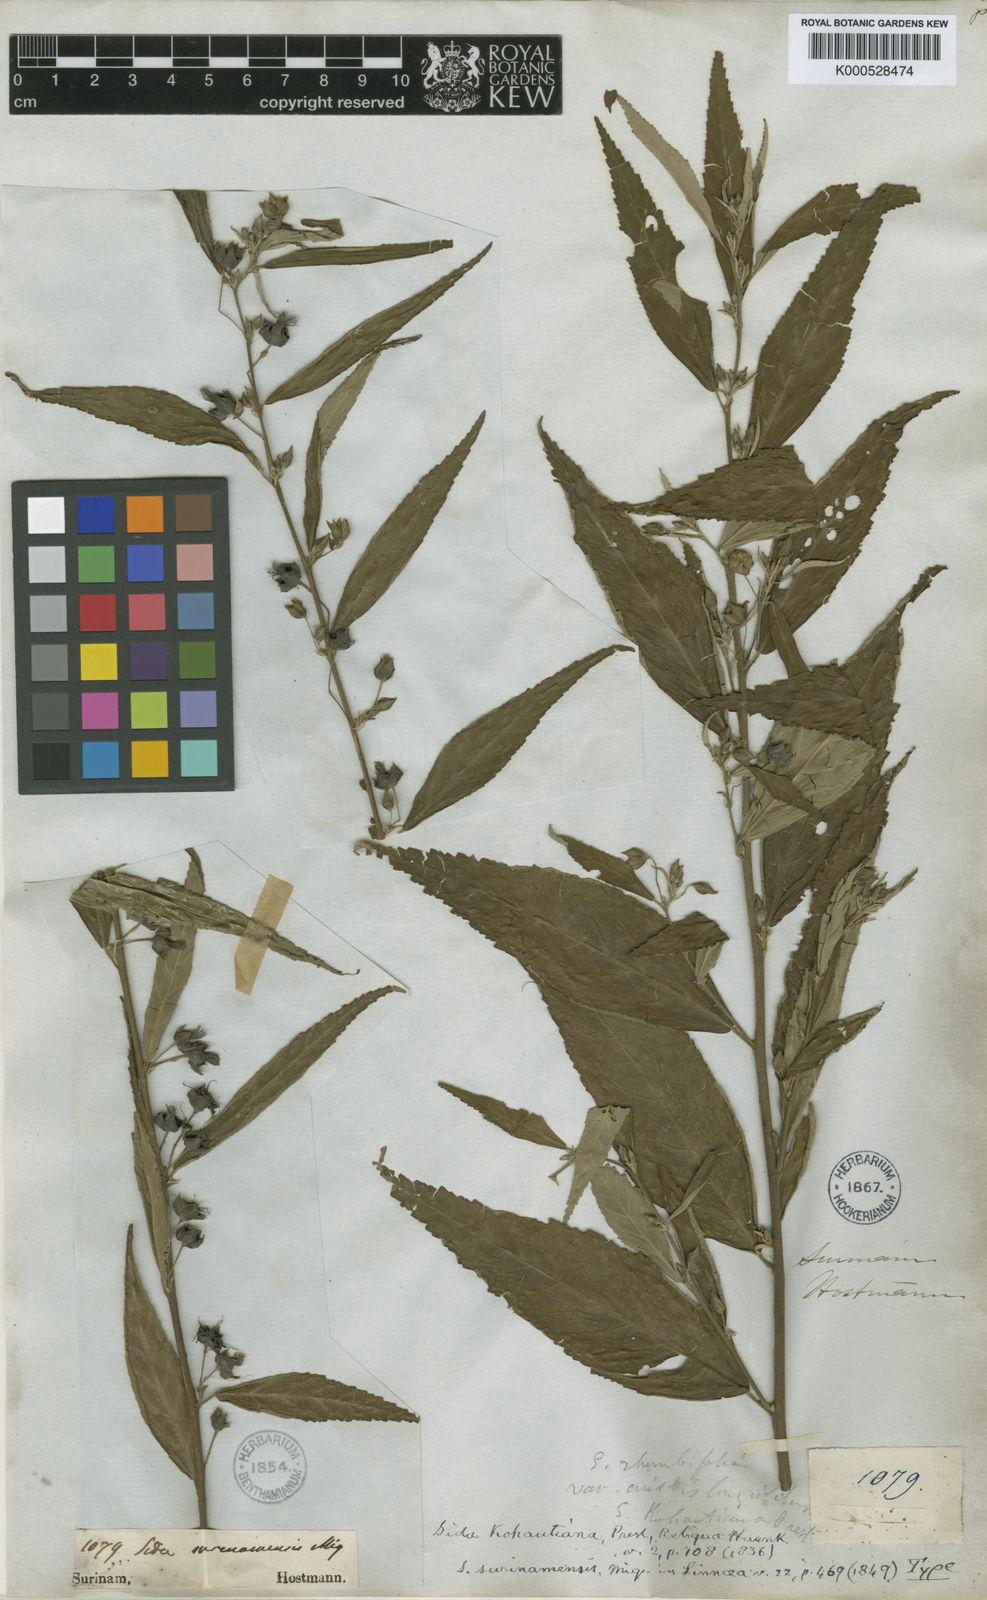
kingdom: Plantae
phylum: Tracheophyta
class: Magnoliopsida
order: Malvales
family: Malvaceae
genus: Sida
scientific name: Sida setosa
